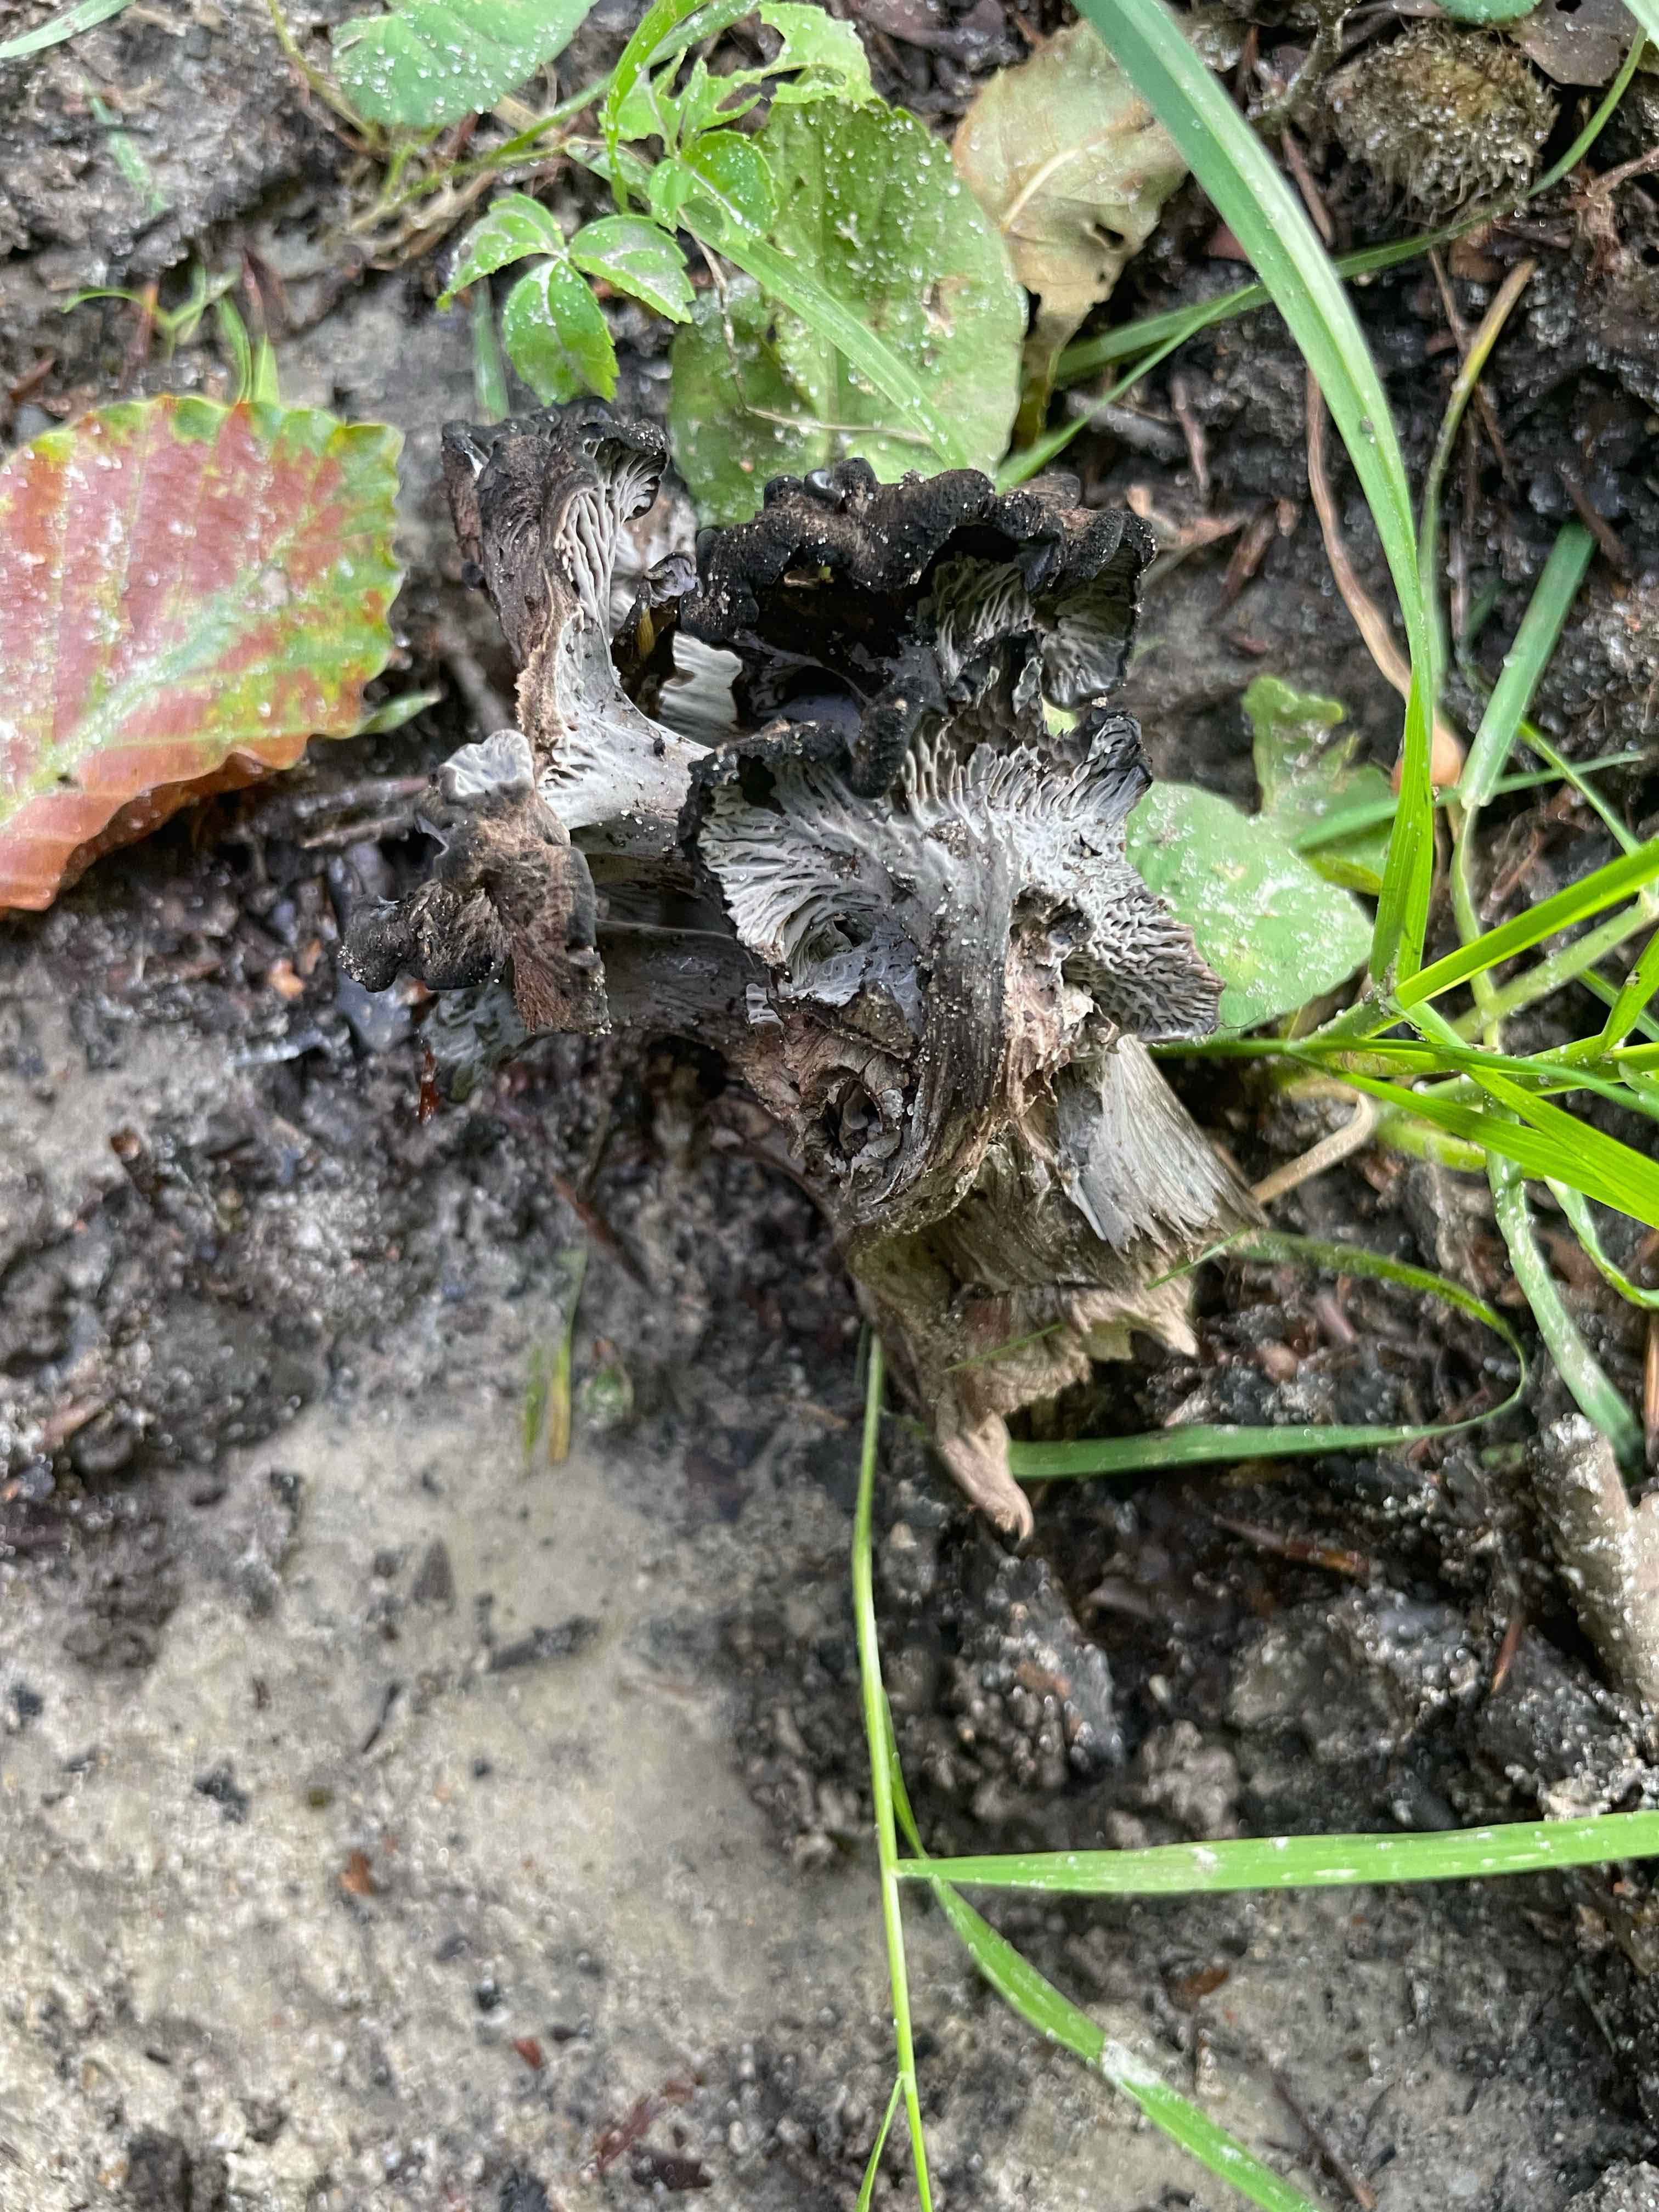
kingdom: Fungi
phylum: Basidiomycota
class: Agaricomycetes
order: Cantharellales
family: Hydnaceae
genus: Cantharellus
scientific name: Cantharellus cinereus
